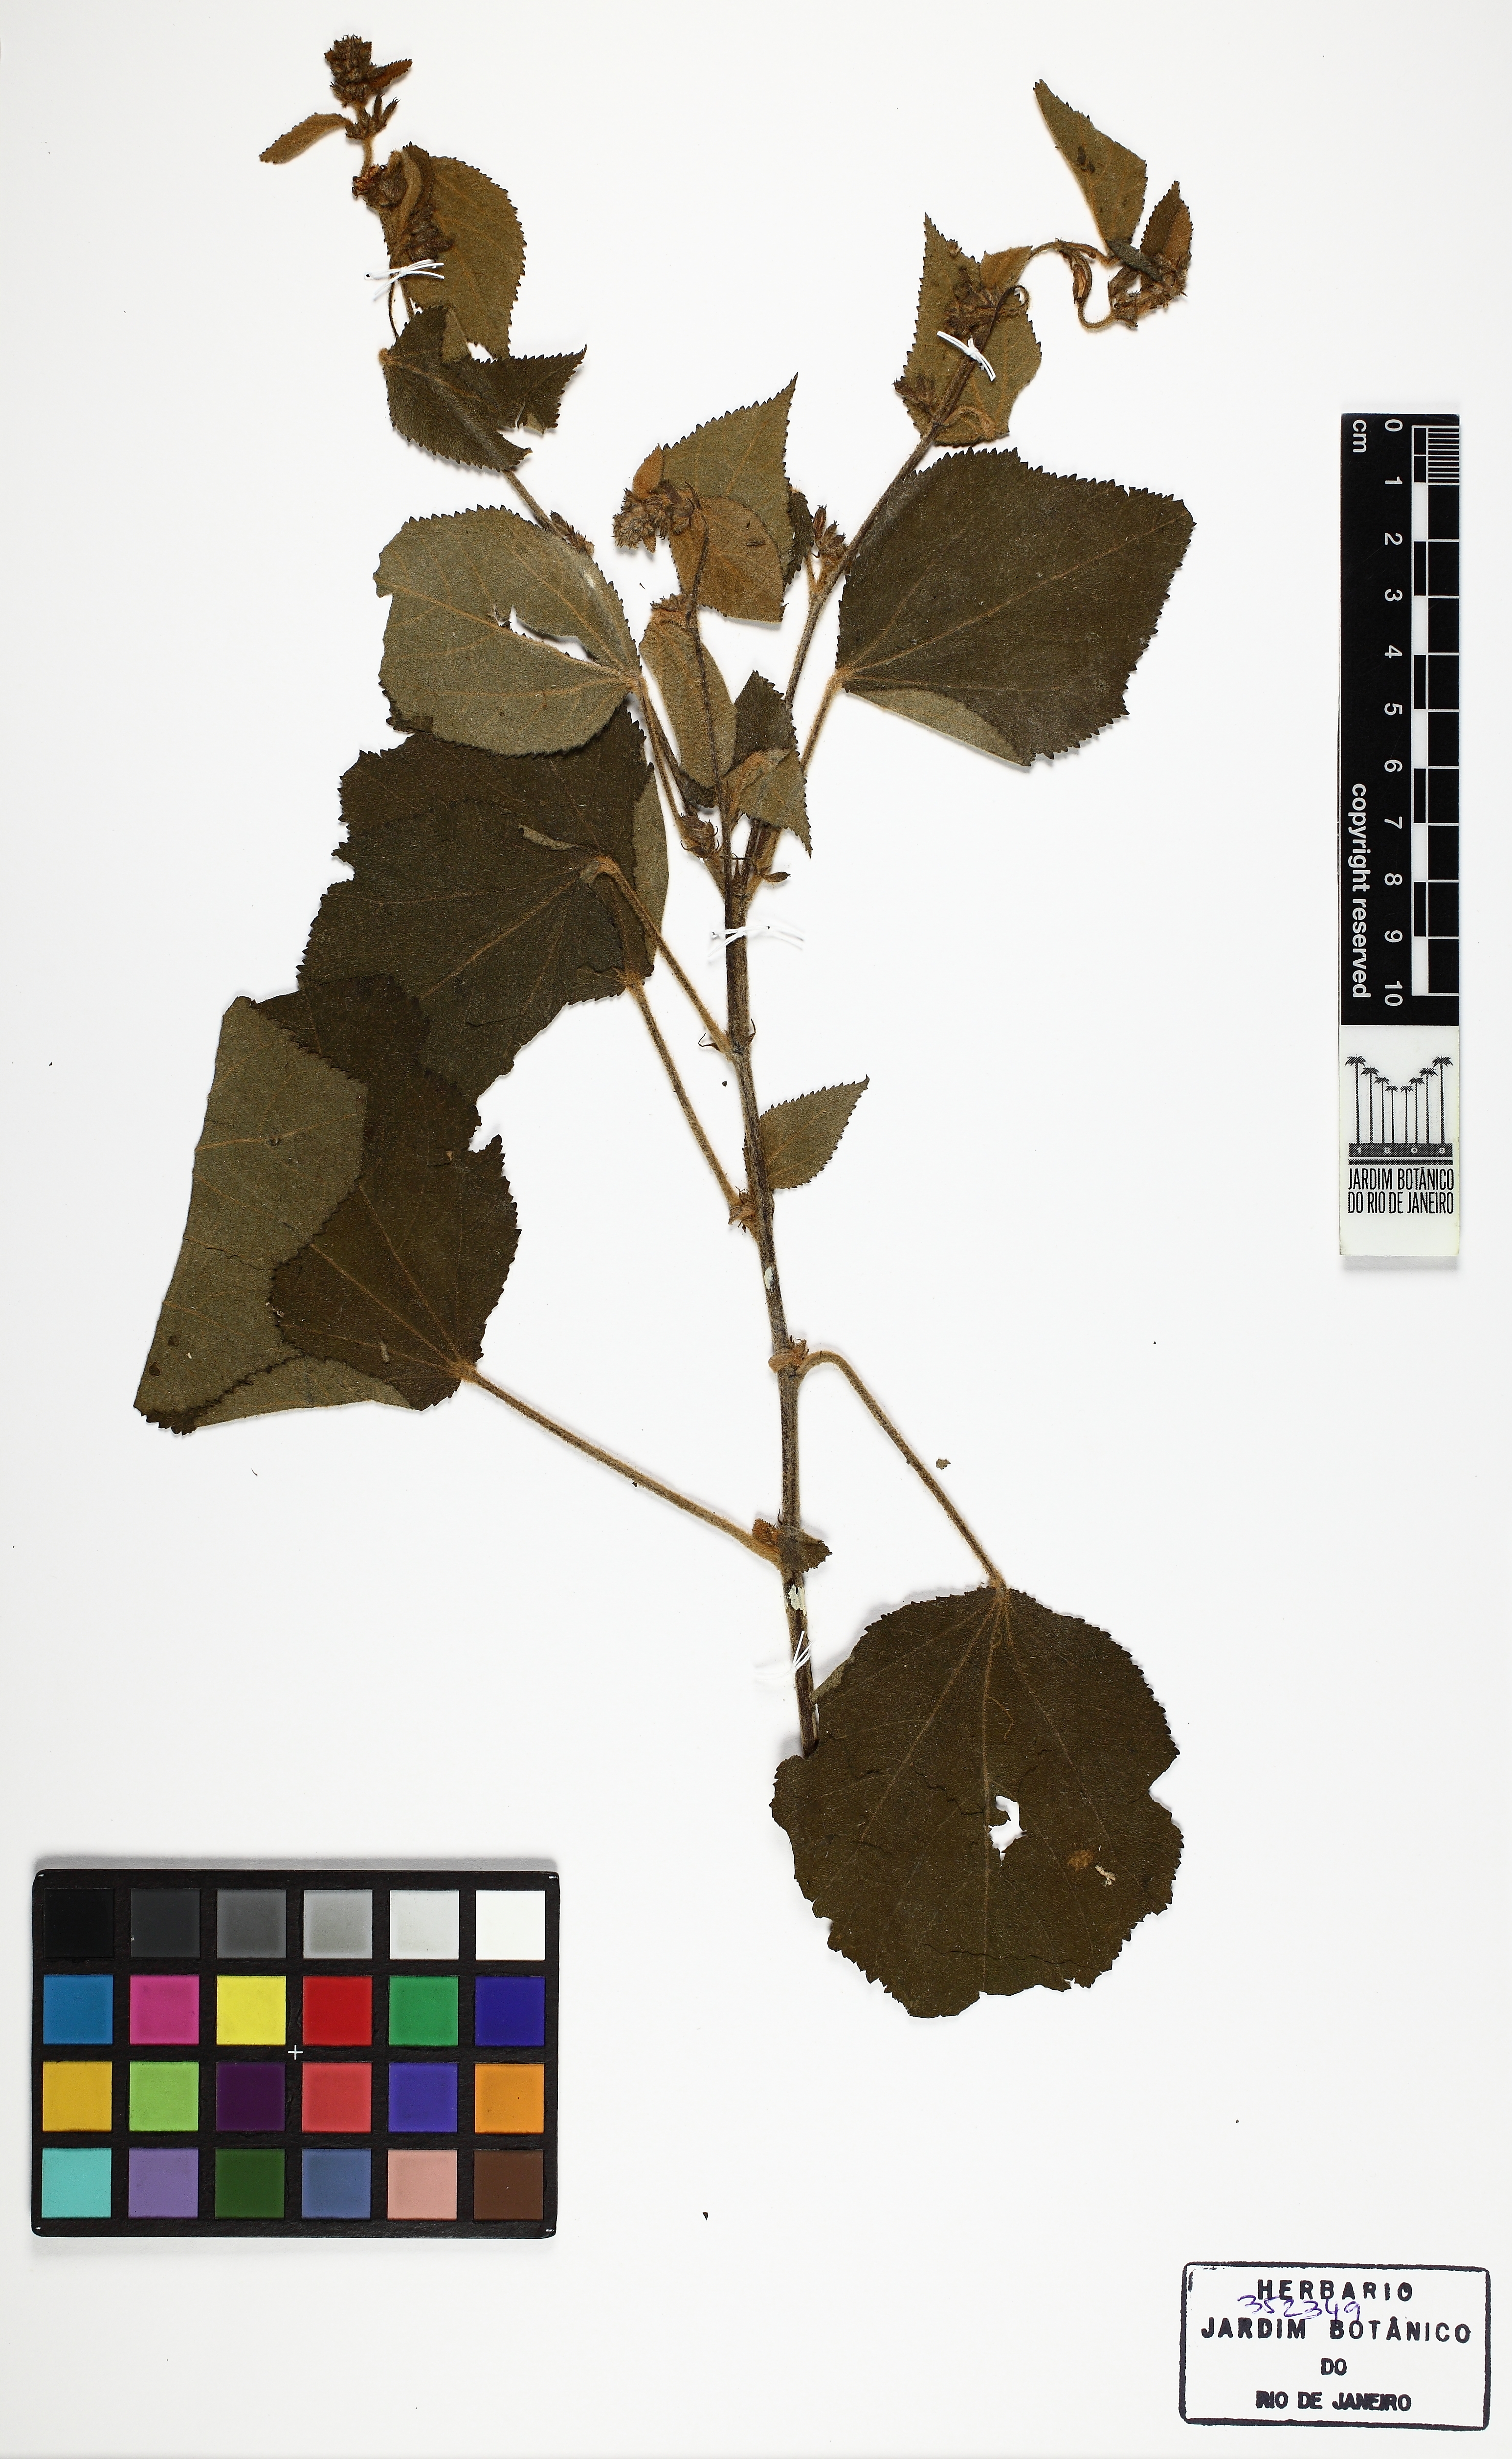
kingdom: Plantae
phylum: Tracheophyta
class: Magnoliopsida
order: Malvales
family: Malvaceae
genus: Triumfetta
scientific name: Triumfetta semitriloba
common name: Sacramento burbark
